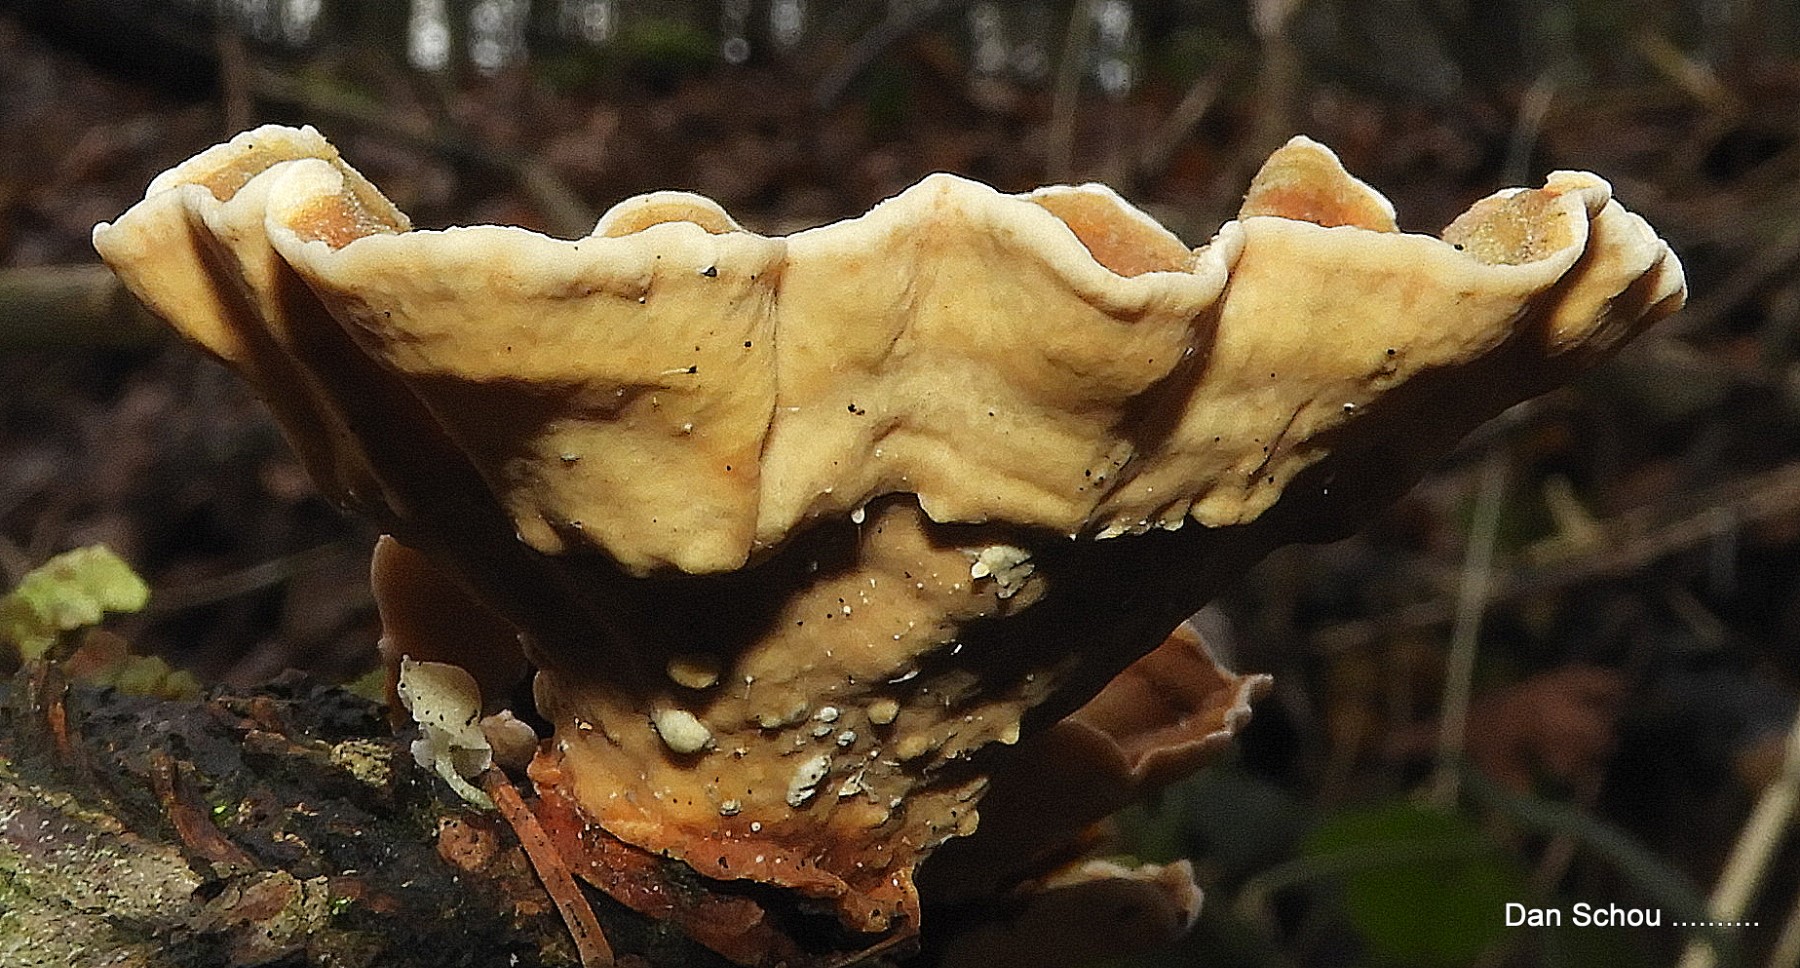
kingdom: Fungi
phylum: Basidiomycota
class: Agaricomycetes
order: Russulales
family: Stereaceae
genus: Stereum
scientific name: Stereum hirsutum
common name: håret lædersvamp
